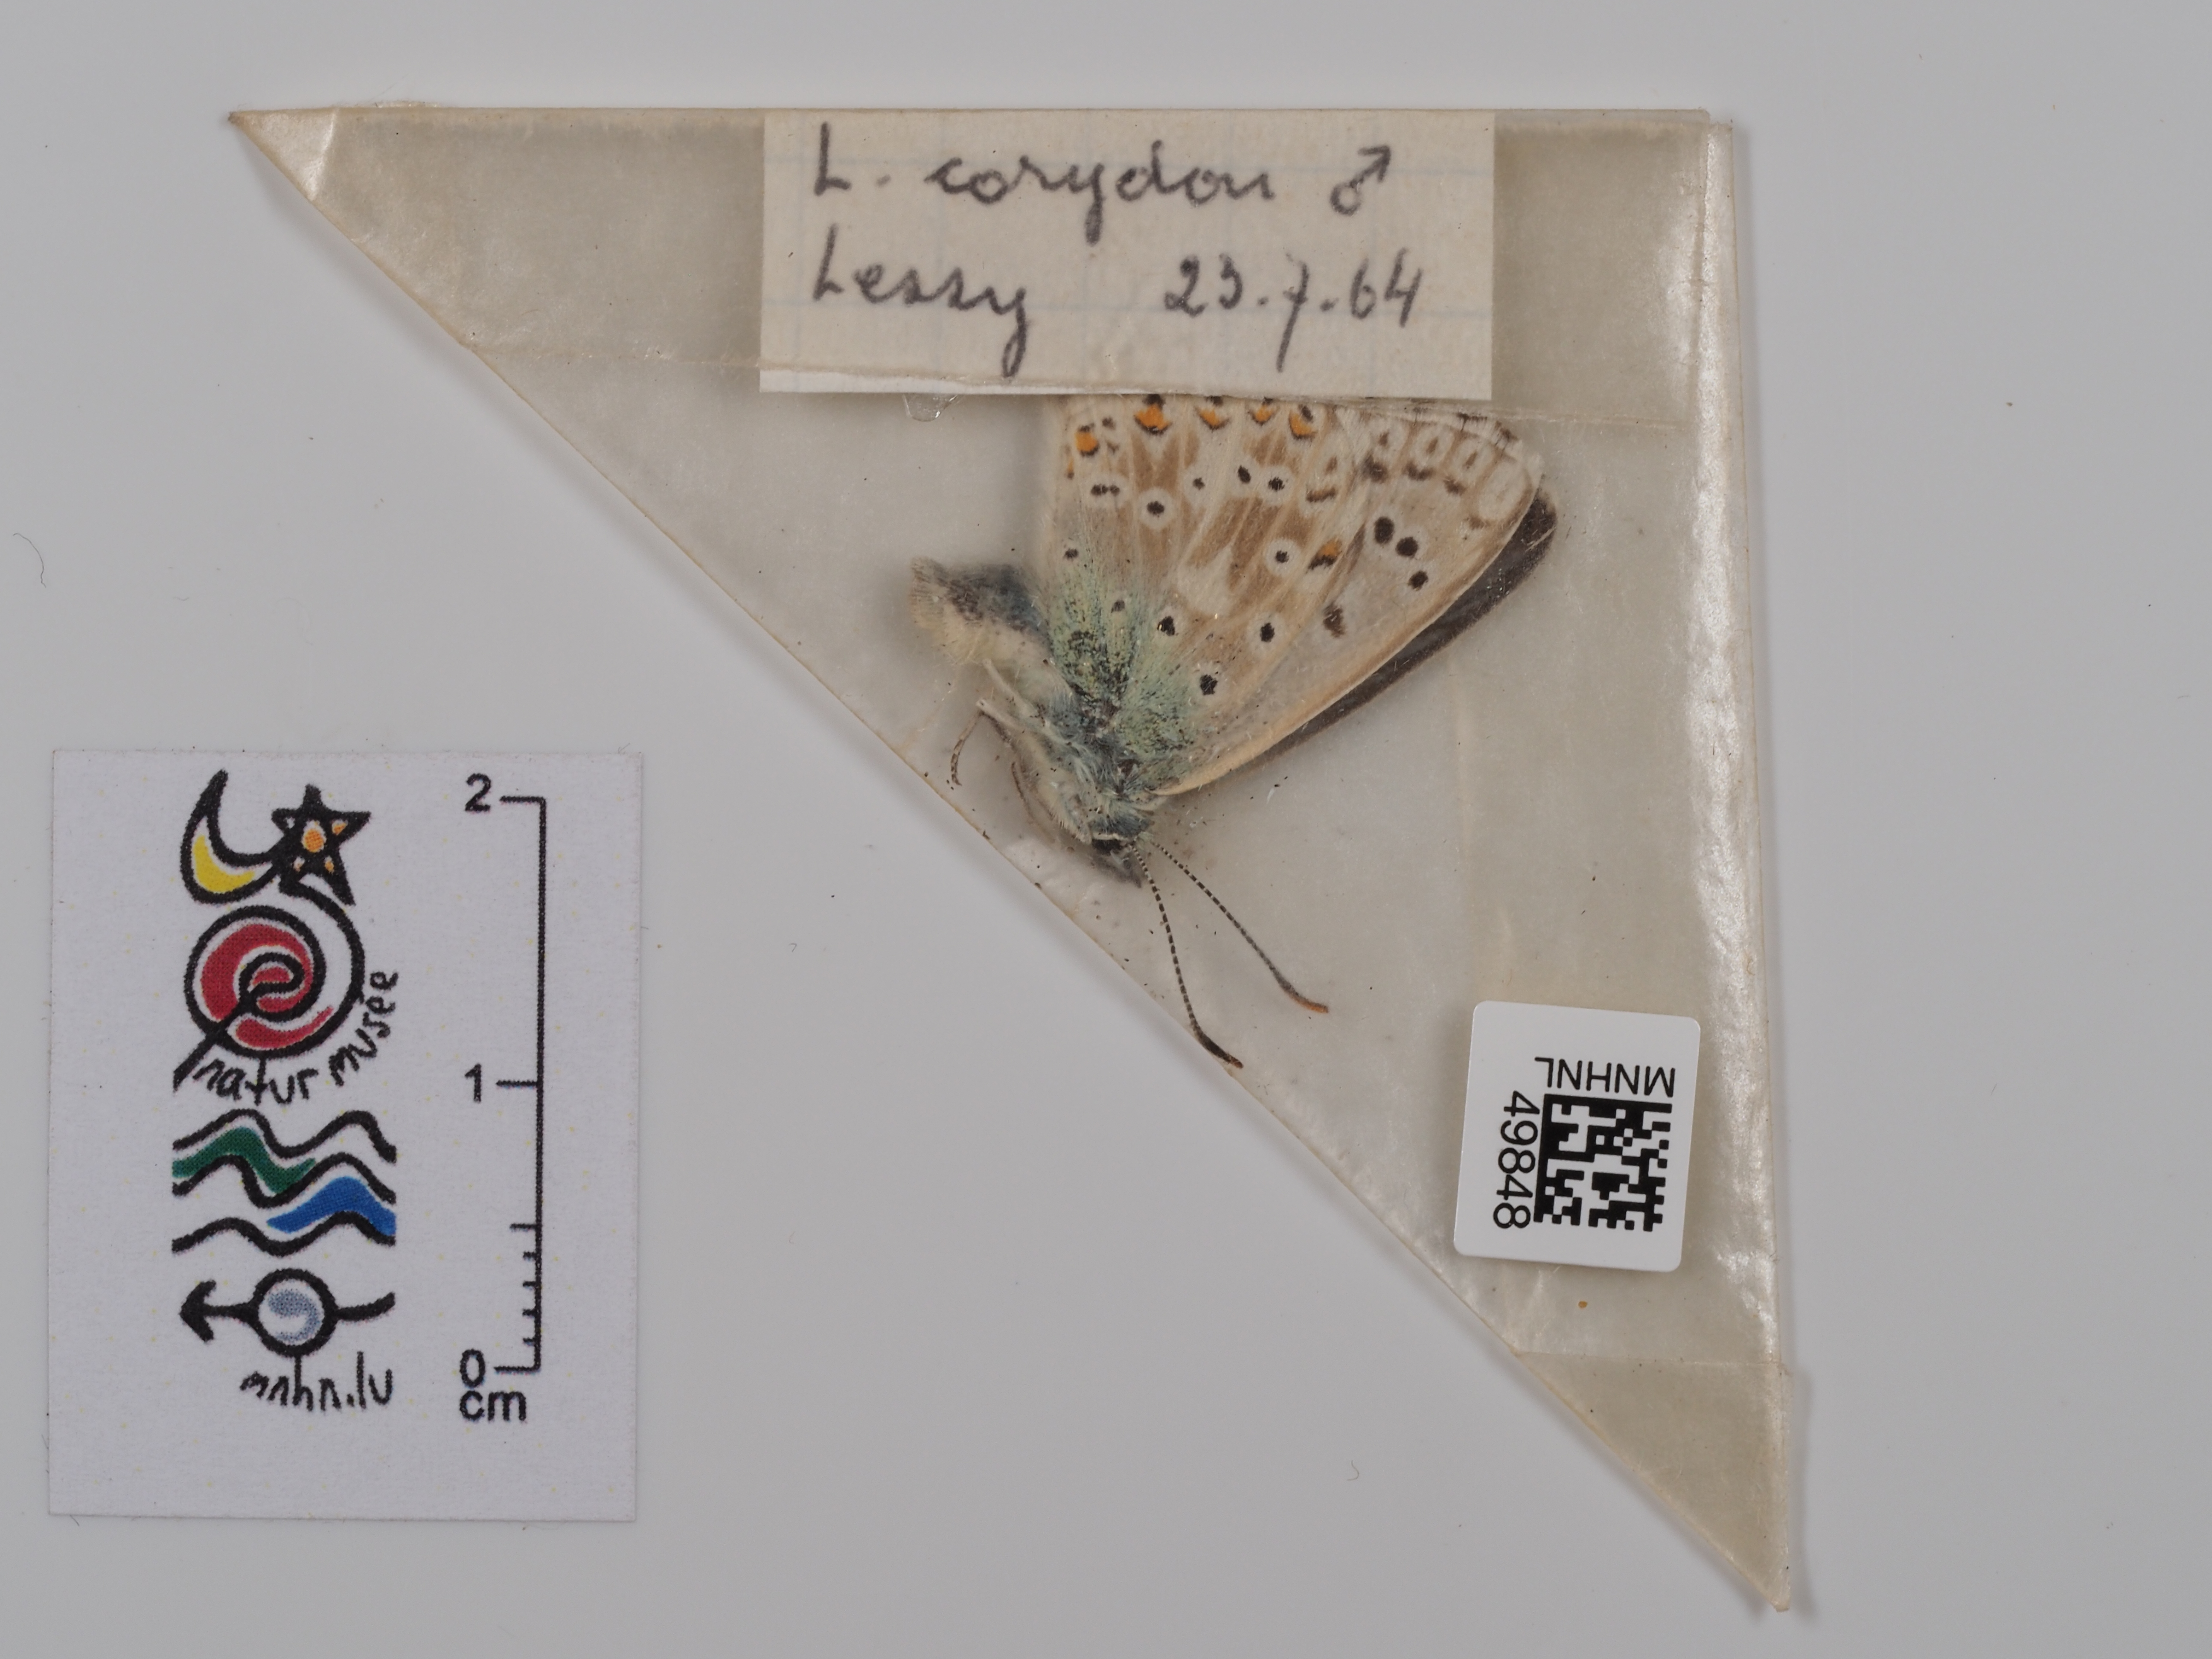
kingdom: Animalia
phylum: Arthropoda
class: Insecta
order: Lepidoptera
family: Lycaenidae
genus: Lysandra
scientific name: Lysandra
